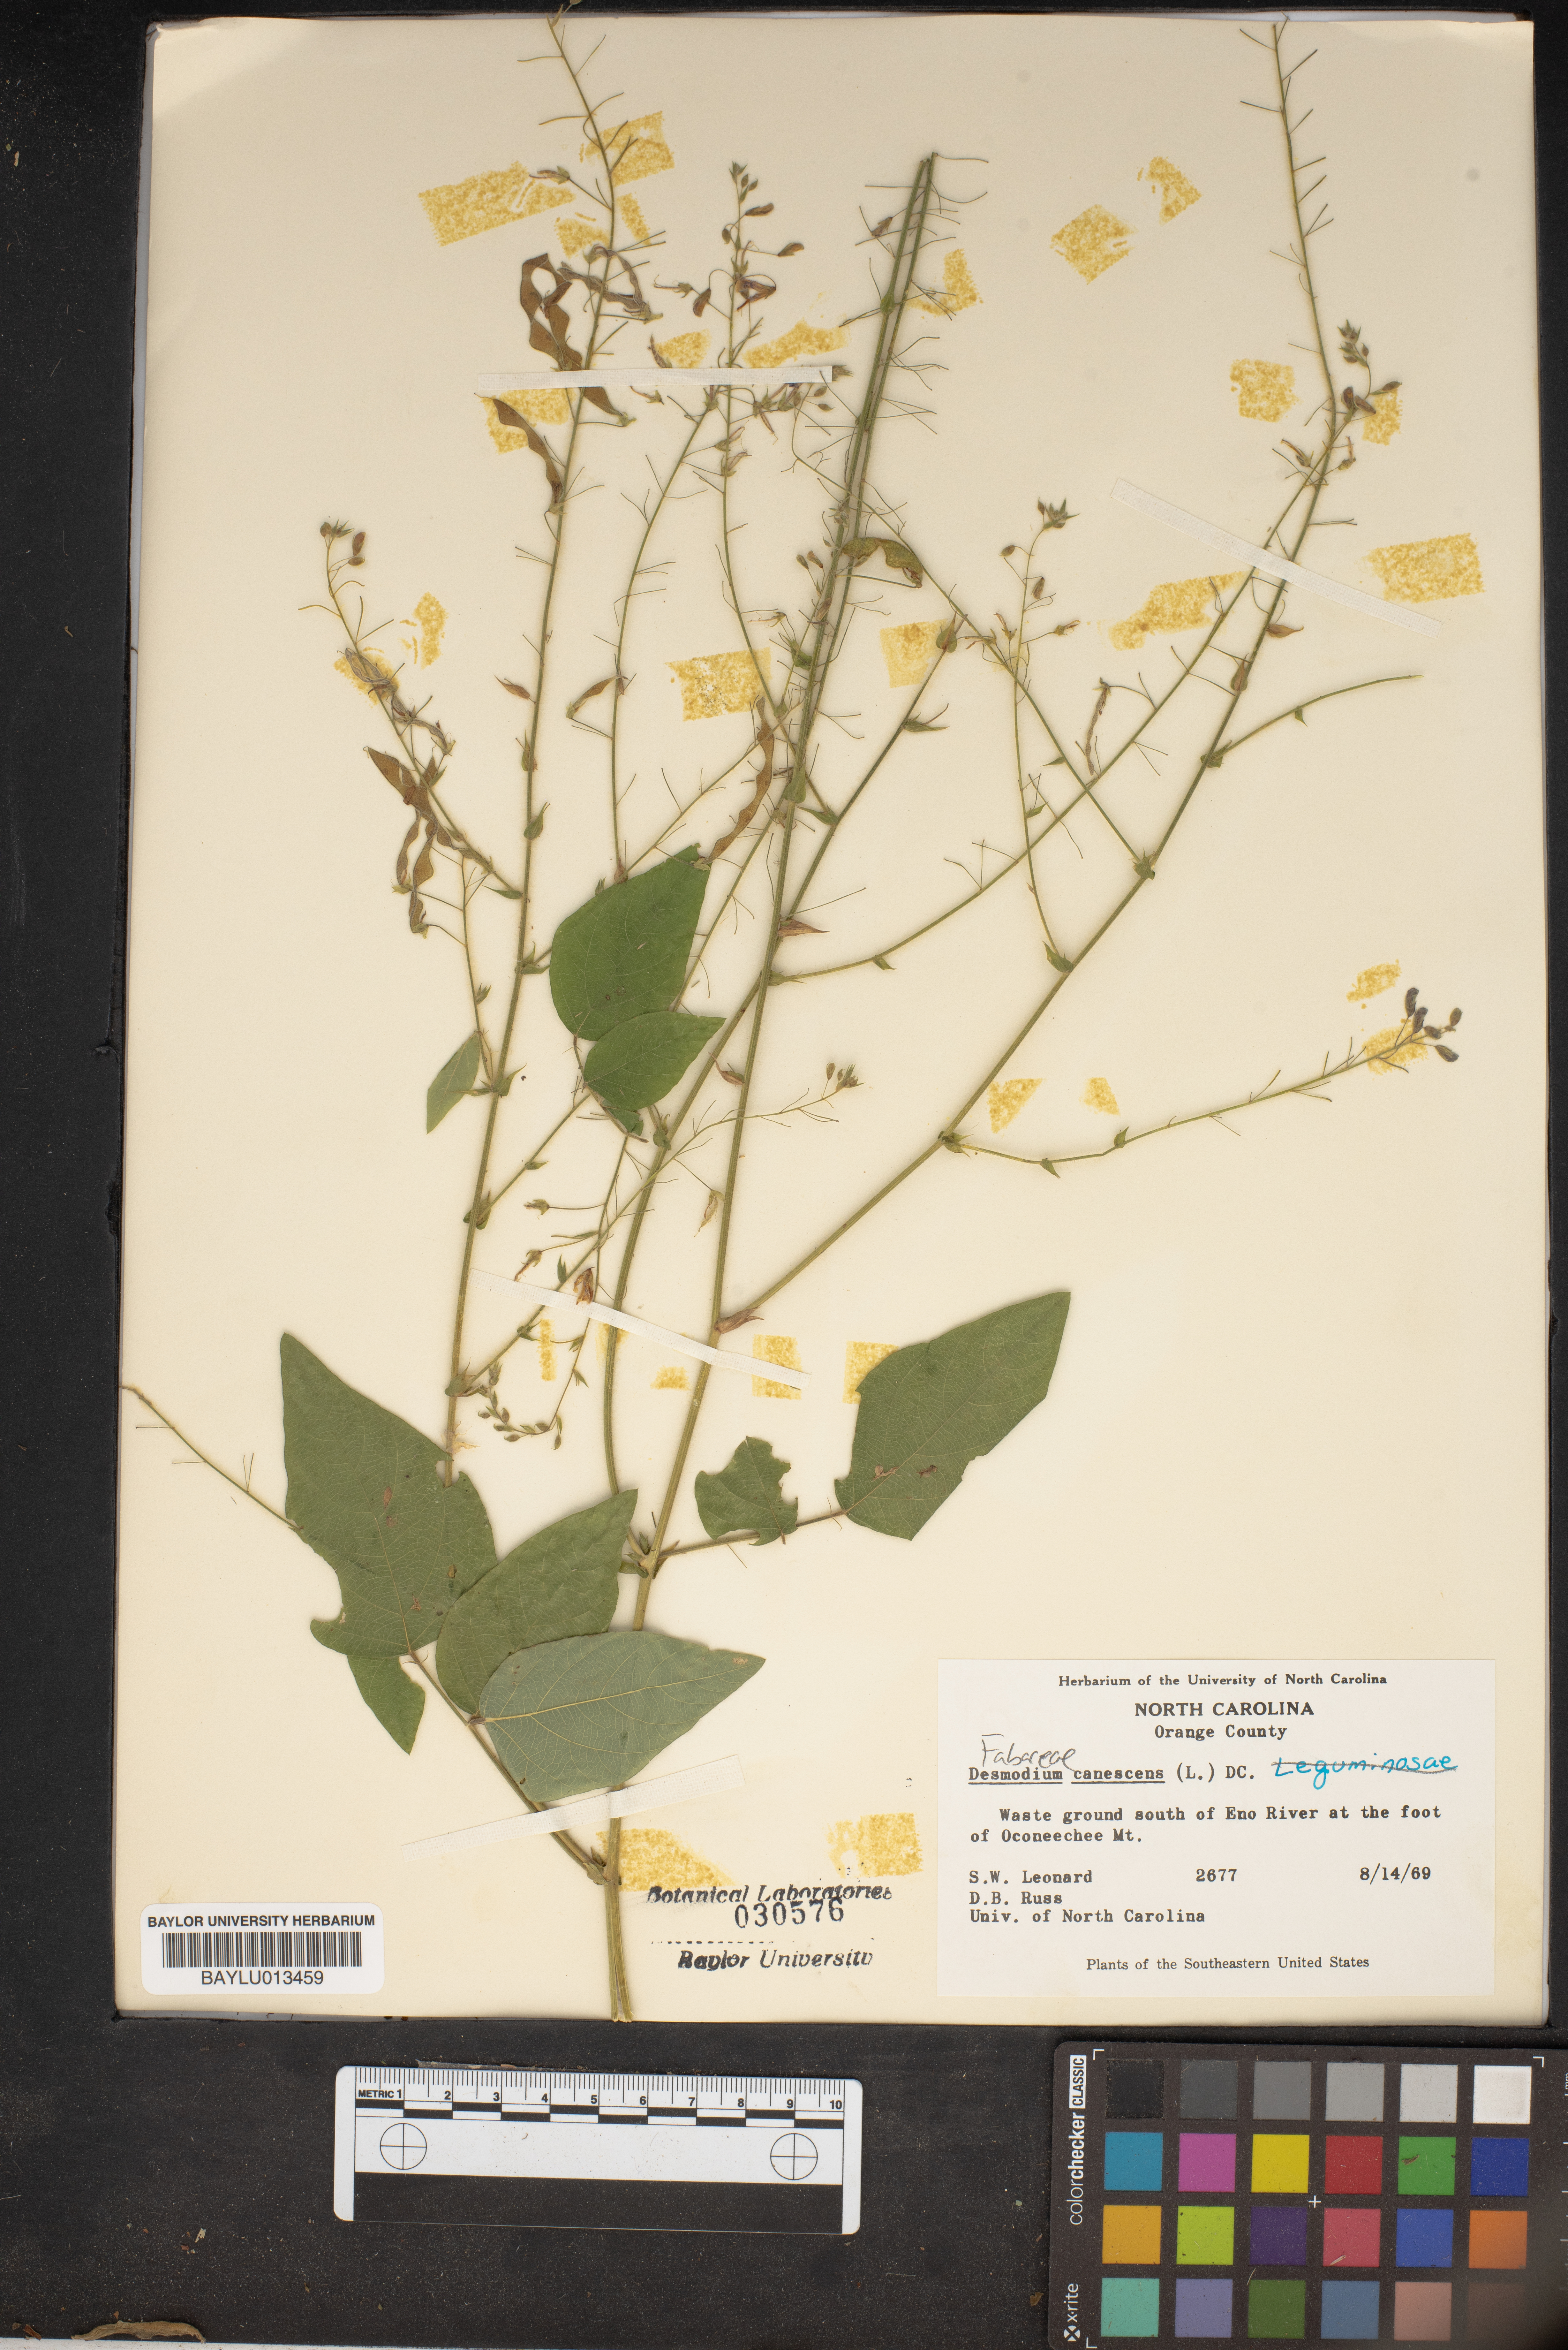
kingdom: Plantae
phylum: Tracheophyta
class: Magnoliopsida
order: Fabales
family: Fabaceae
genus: Desmodium
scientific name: Desmodium canescens
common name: Hoary tick-clover
